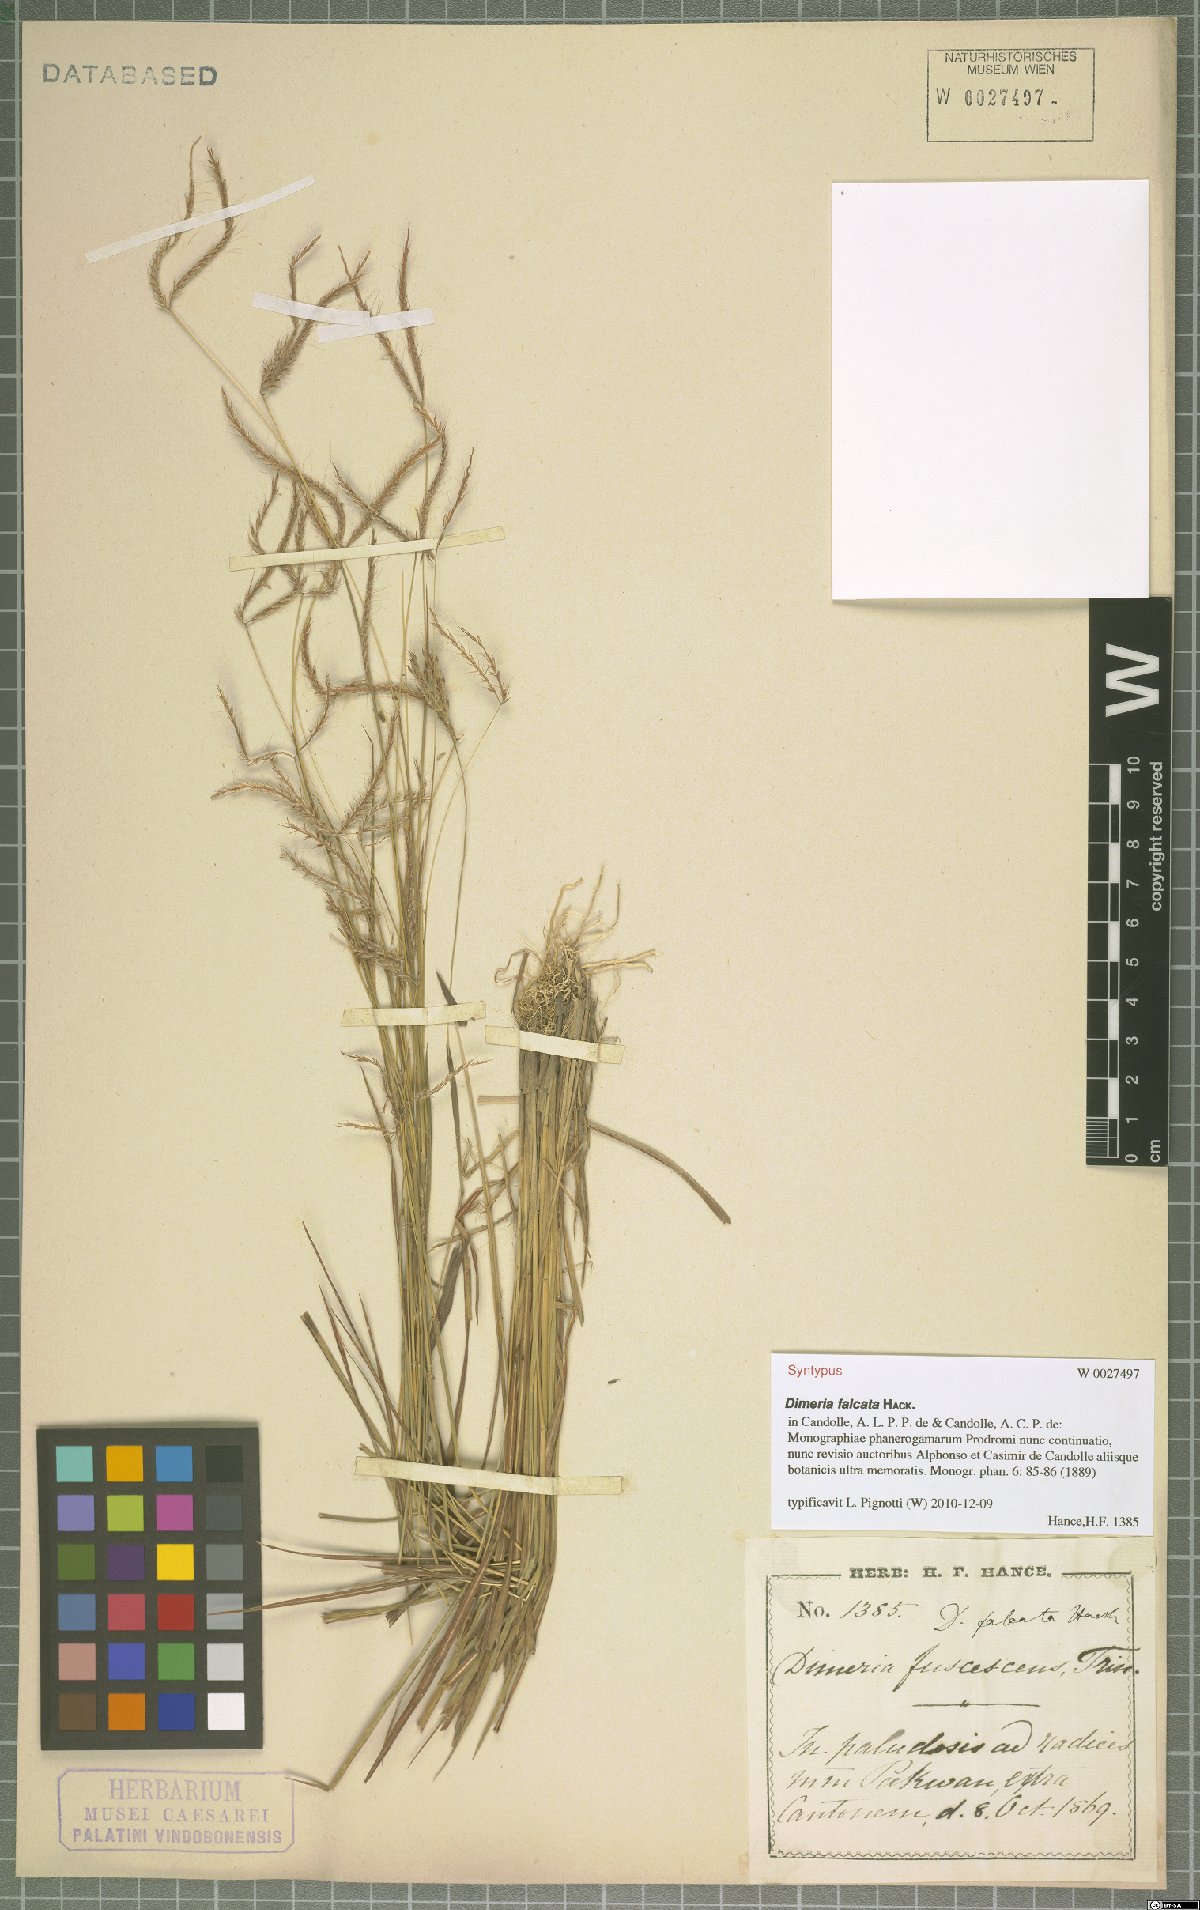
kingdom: Plantae
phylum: Tracheophyta
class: Liliopsida
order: Poales
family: Poaceae
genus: Dimeria
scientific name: Dimeria falcata
